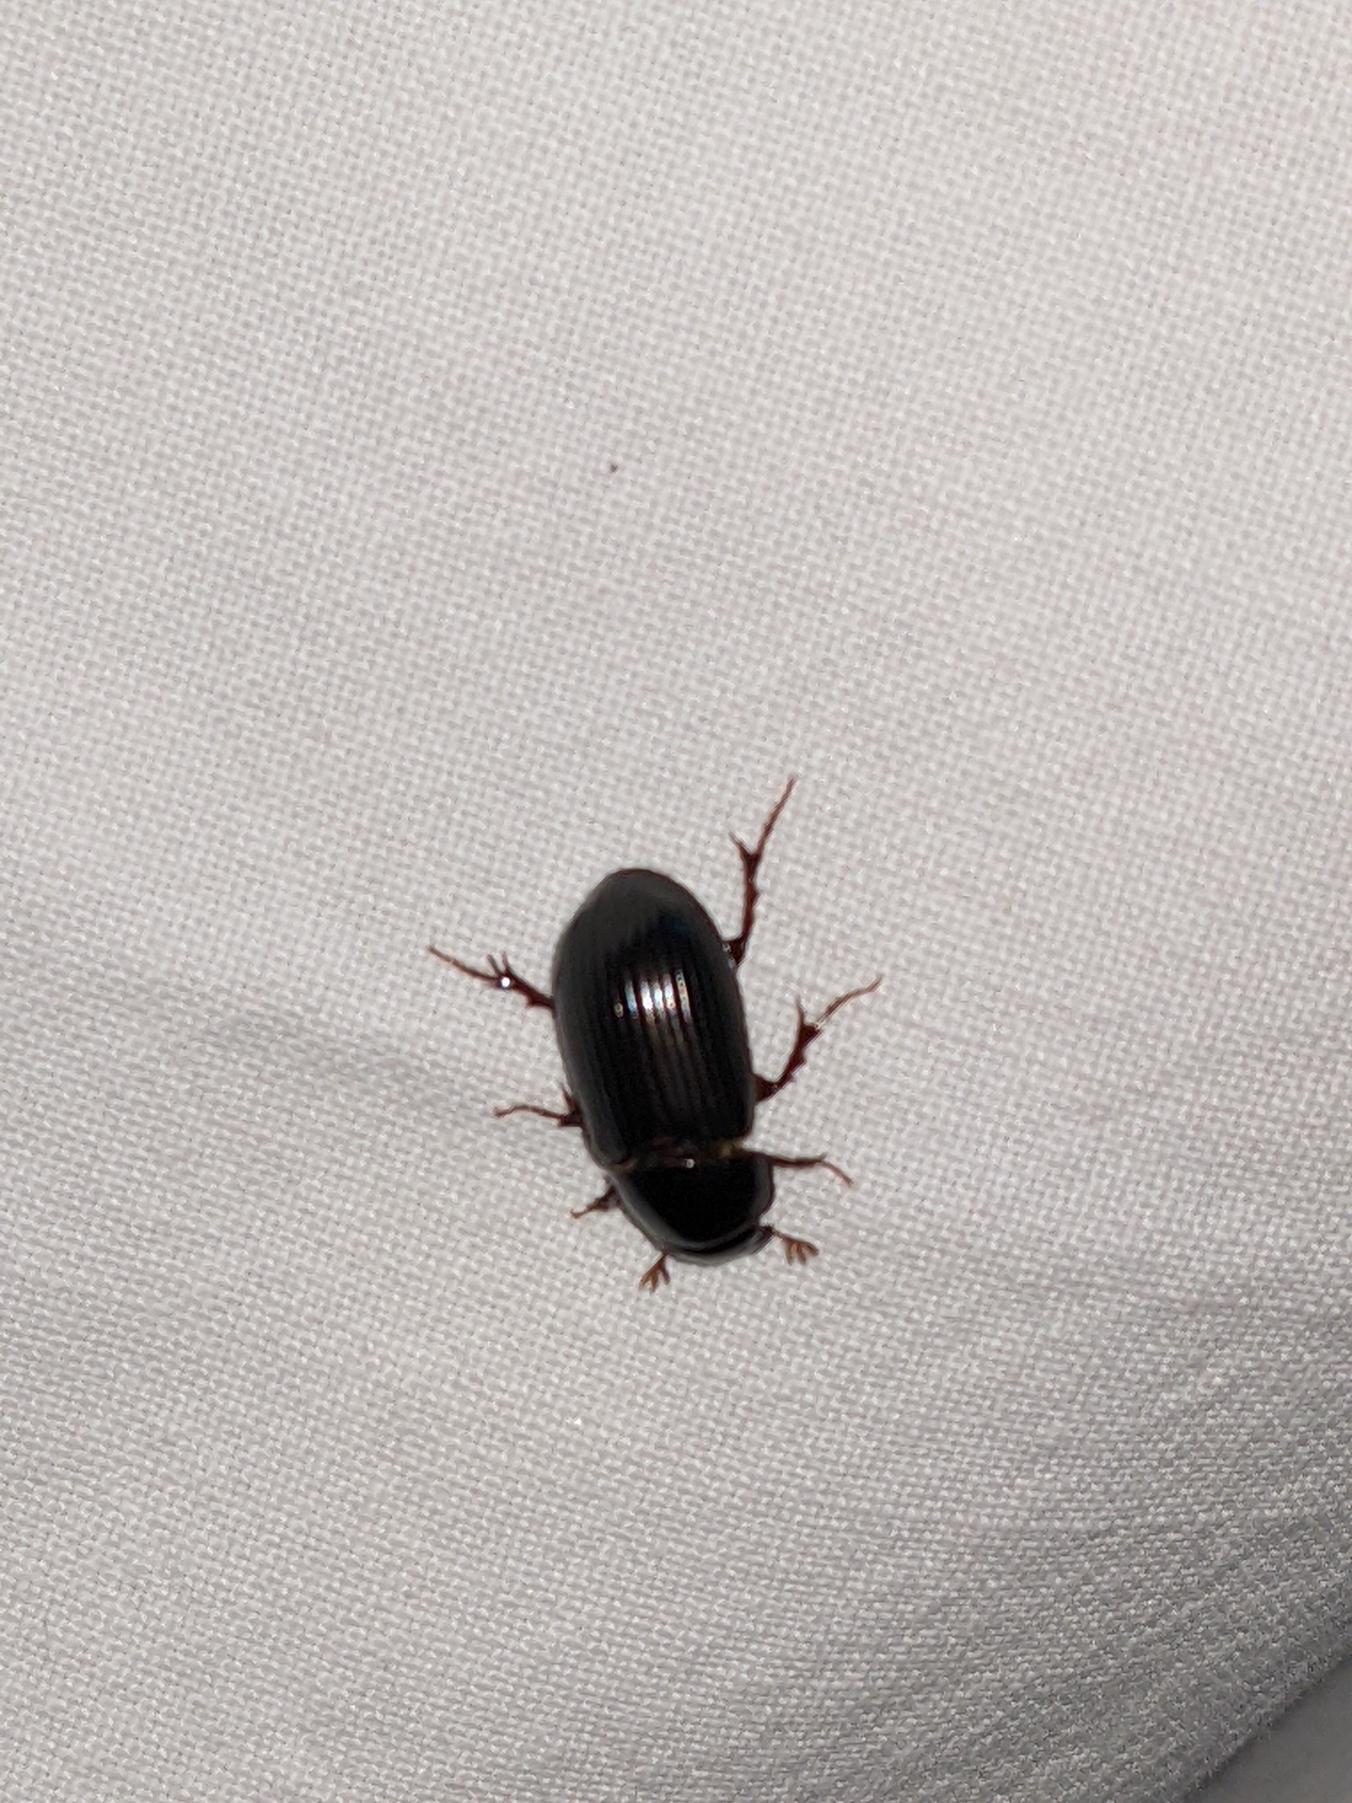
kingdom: Animalia
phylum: Arthropoda
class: Insecta
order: Coleoptera
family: Scarabaeidae
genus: Acrossus
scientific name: Acrossus rufipes
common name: Rødbenet møgbille
